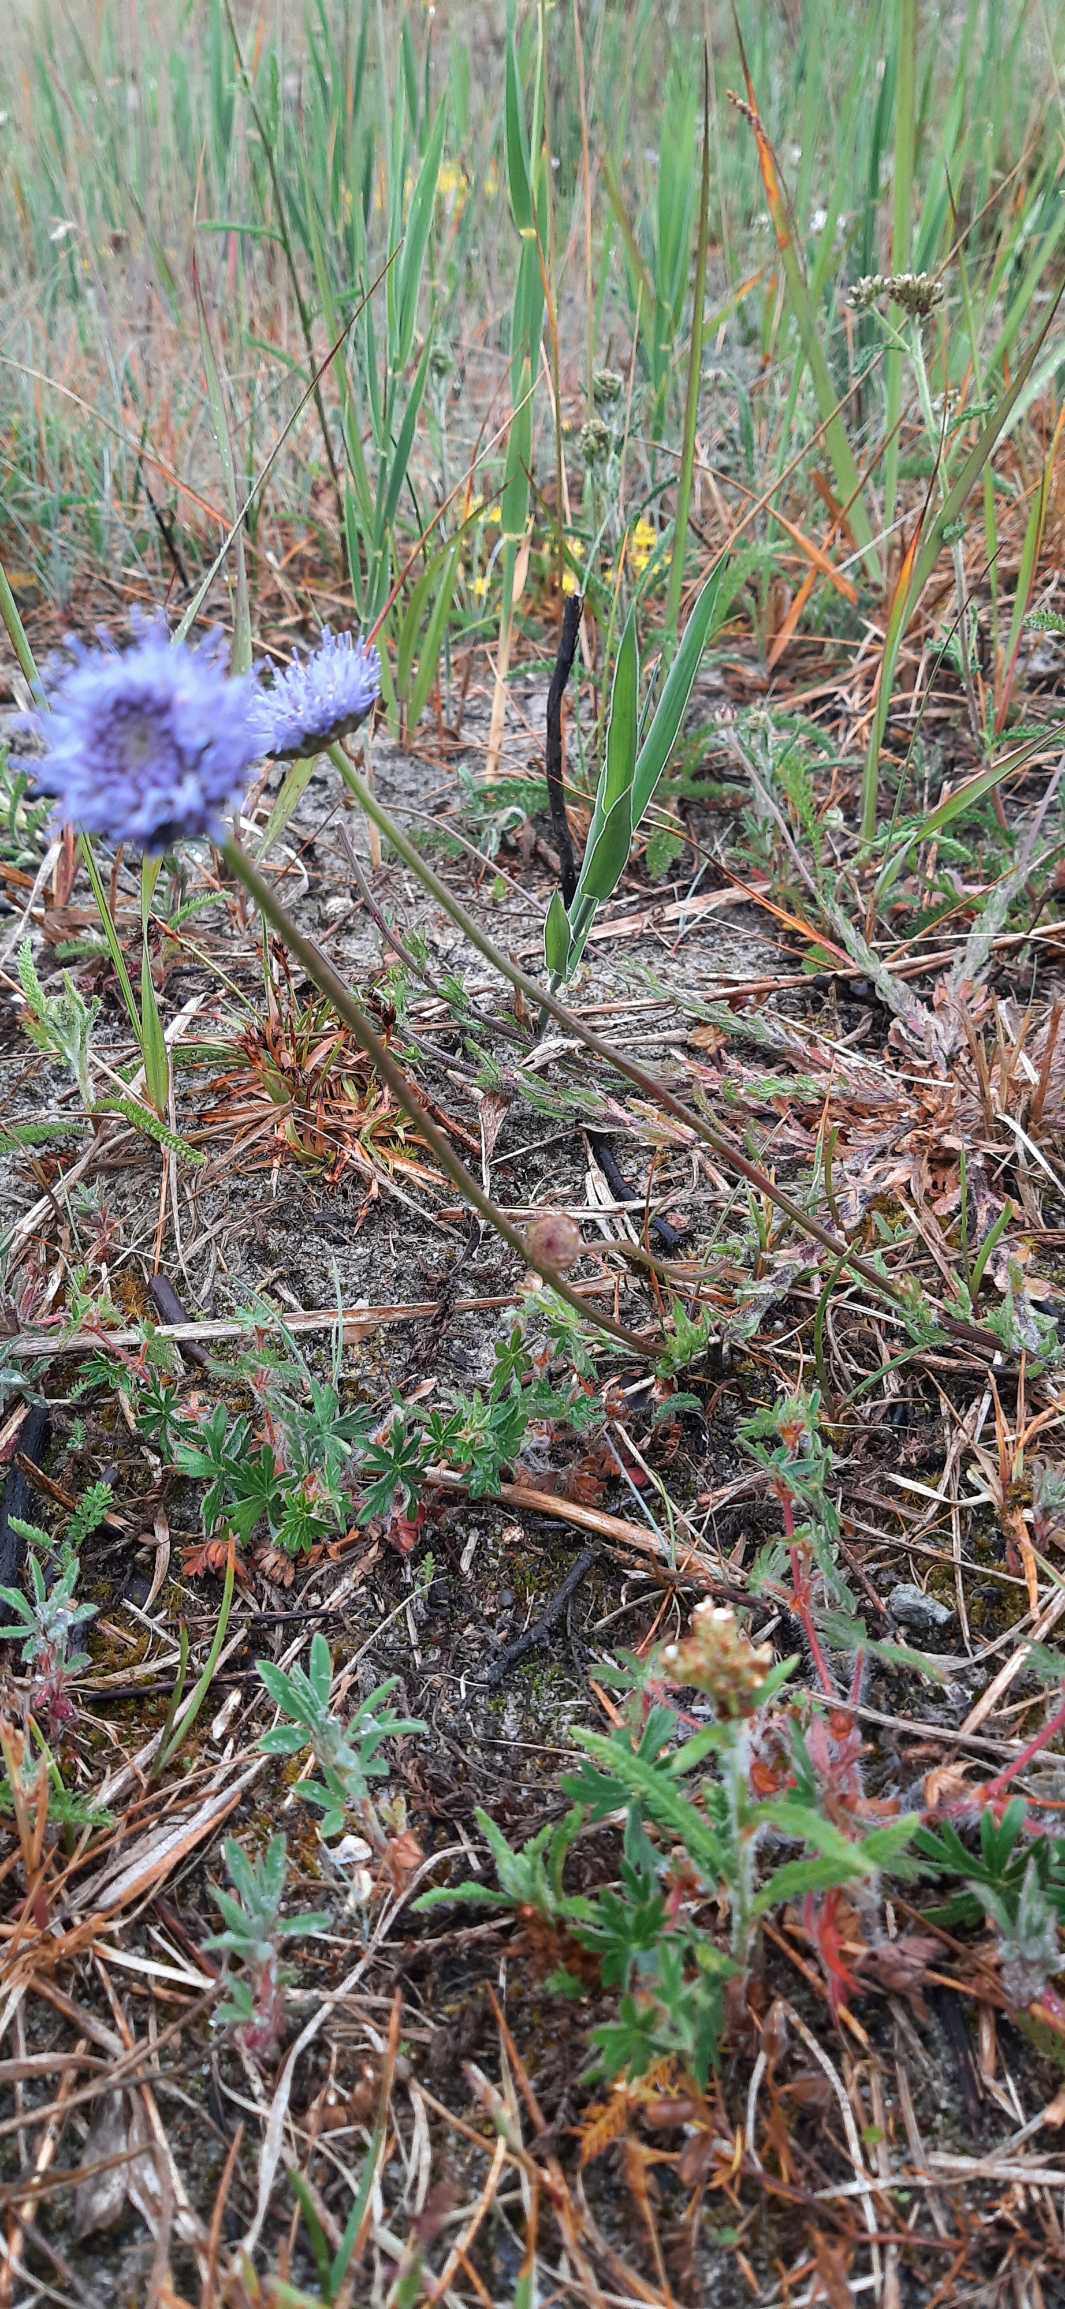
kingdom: Plantae
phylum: Tracheophyta
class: Magnoliopsida
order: Asterales
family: Campanulaceae
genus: Jasione
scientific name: Jasione montana
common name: Blåmunke
